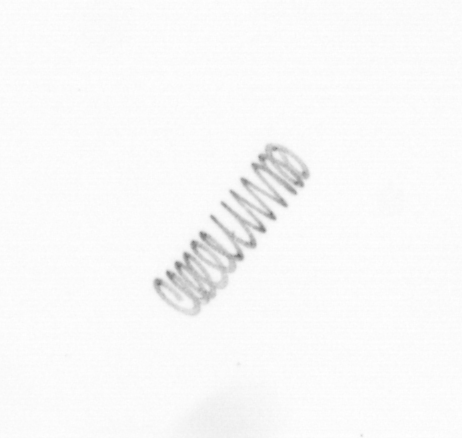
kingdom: Chromista
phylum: Ochrophyta
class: Bacillariophyceae
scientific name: Bacillariophyceae
